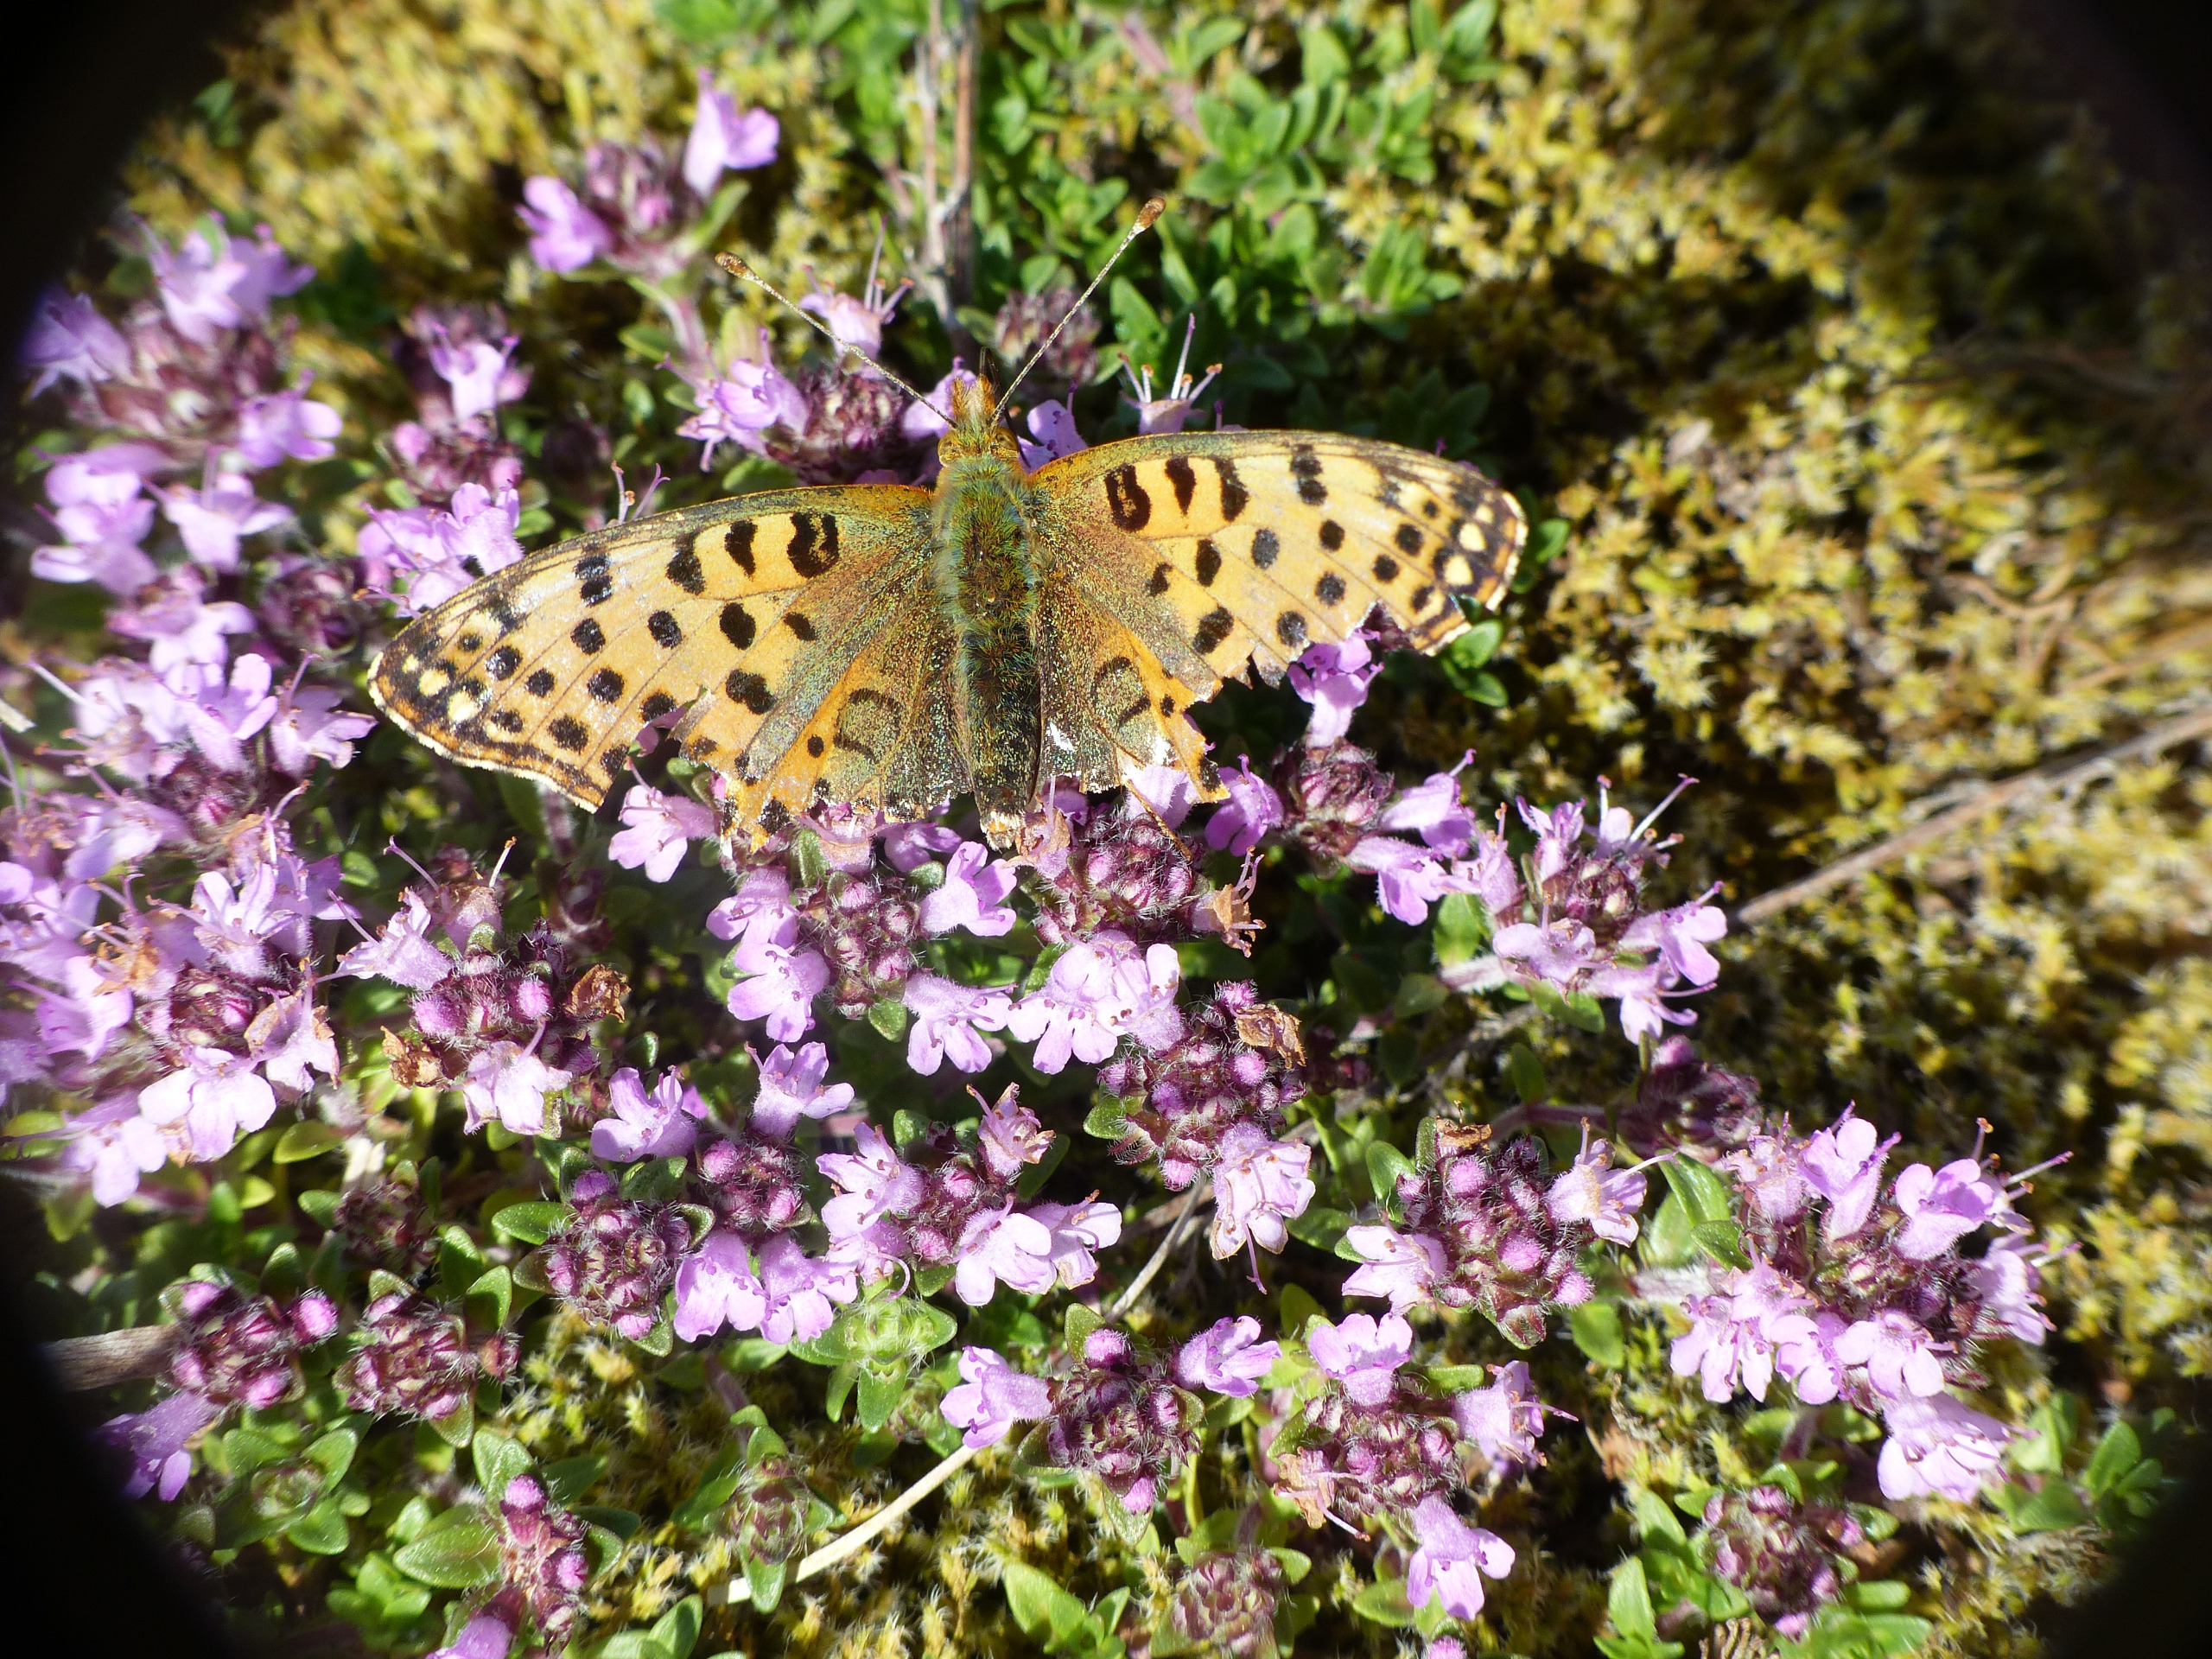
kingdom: Animalia
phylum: Arthropoda
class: Insecta
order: Lepidoptera
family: Nymphalidae
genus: Issoria
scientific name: Issoria lathonia
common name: Storplettet perlemorsommerfugl
